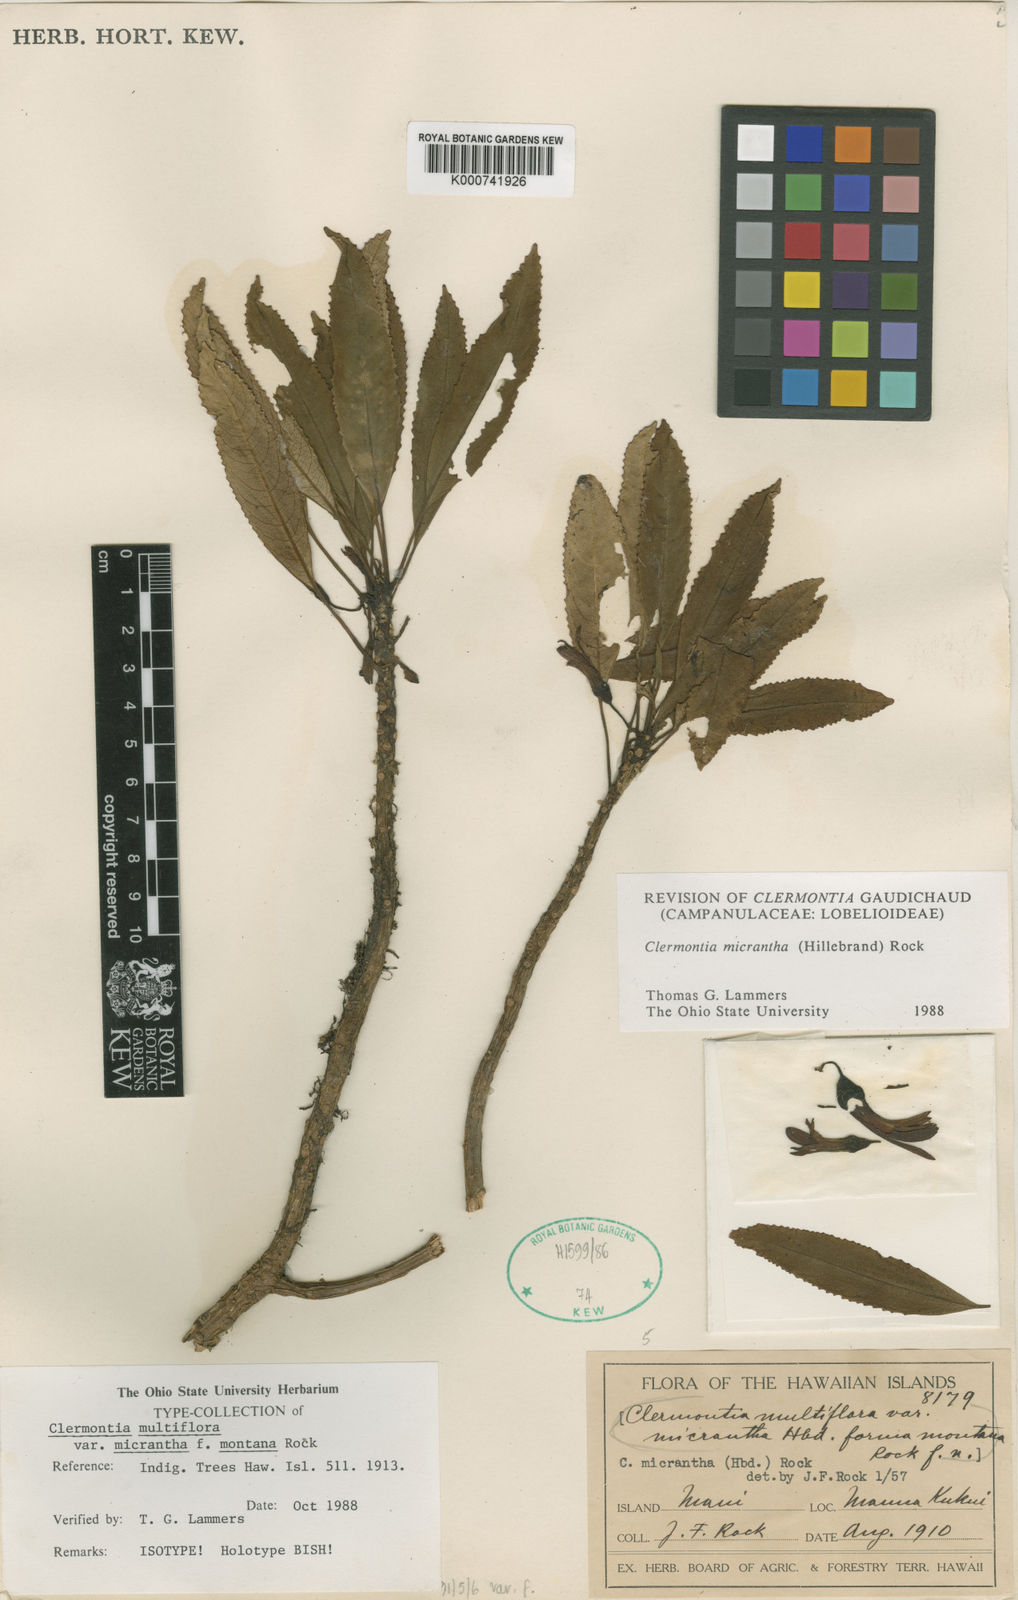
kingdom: Plantae
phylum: Tracheophyta
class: Magnoliopsida
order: Asterales
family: Campanulaceae
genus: Clermontia
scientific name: Clermontia micrantha
